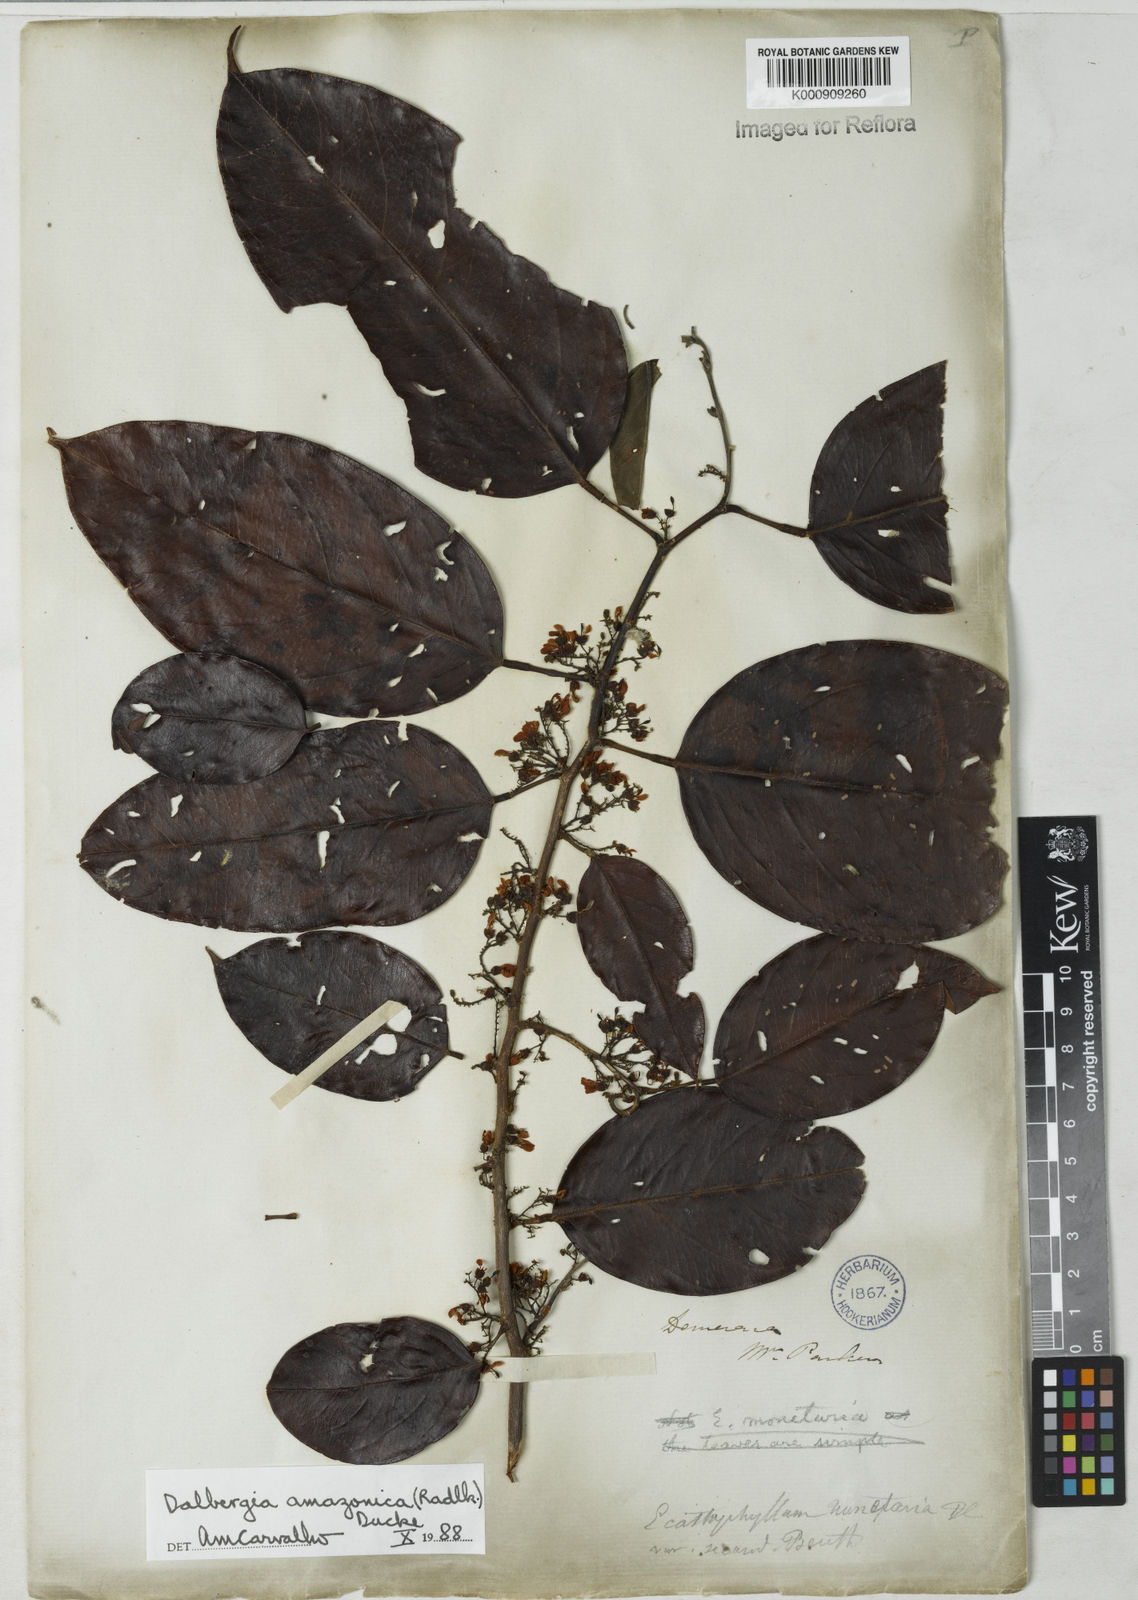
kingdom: Plantae
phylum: Tracheophyta
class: Magnoliopsida
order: Fabales
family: Fabaceae
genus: Dalbergia
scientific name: Dalbergia
